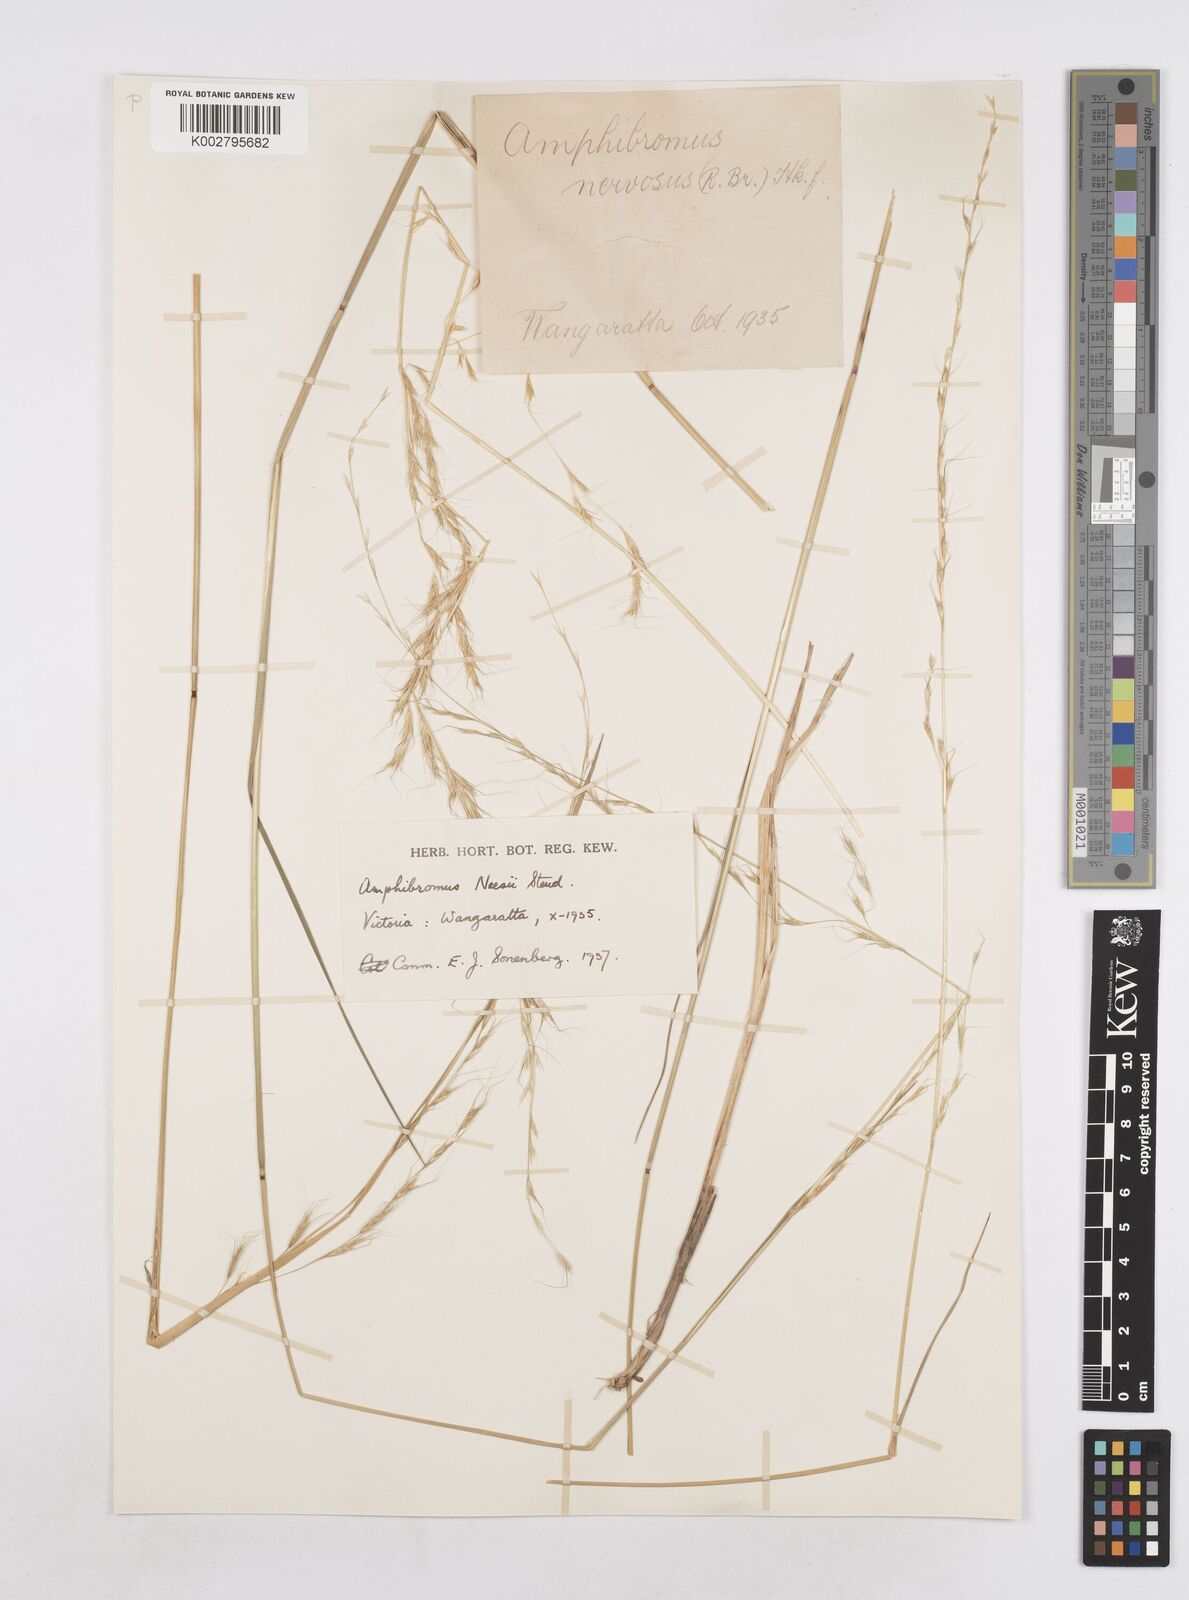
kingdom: Plantae
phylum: Tracheophyta
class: Liliopsida
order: Poales
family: Poaceae
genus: Amphibromus
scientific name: Amphibromus neesii
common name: Australian wallaby grass
